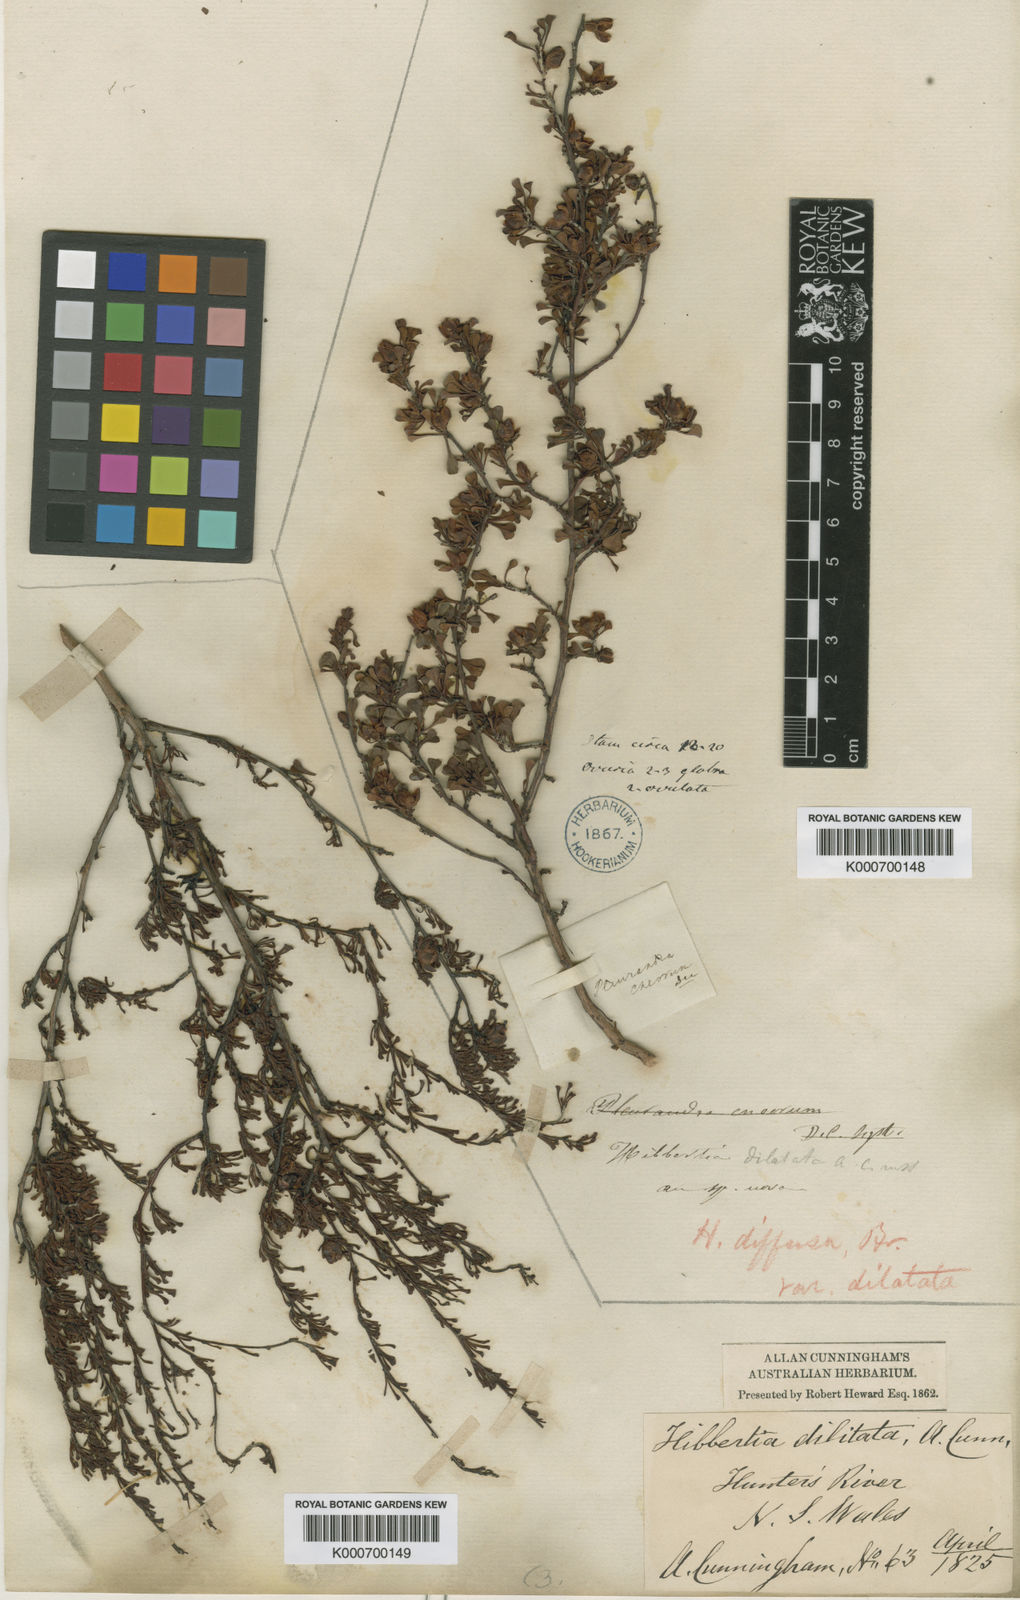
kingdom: Plantae
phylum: Tracheophyta
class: Magnoliopsida
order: Dilleniales
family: Dilleniaceae
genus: Hibbertia
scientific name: Hibbertia diffusa
